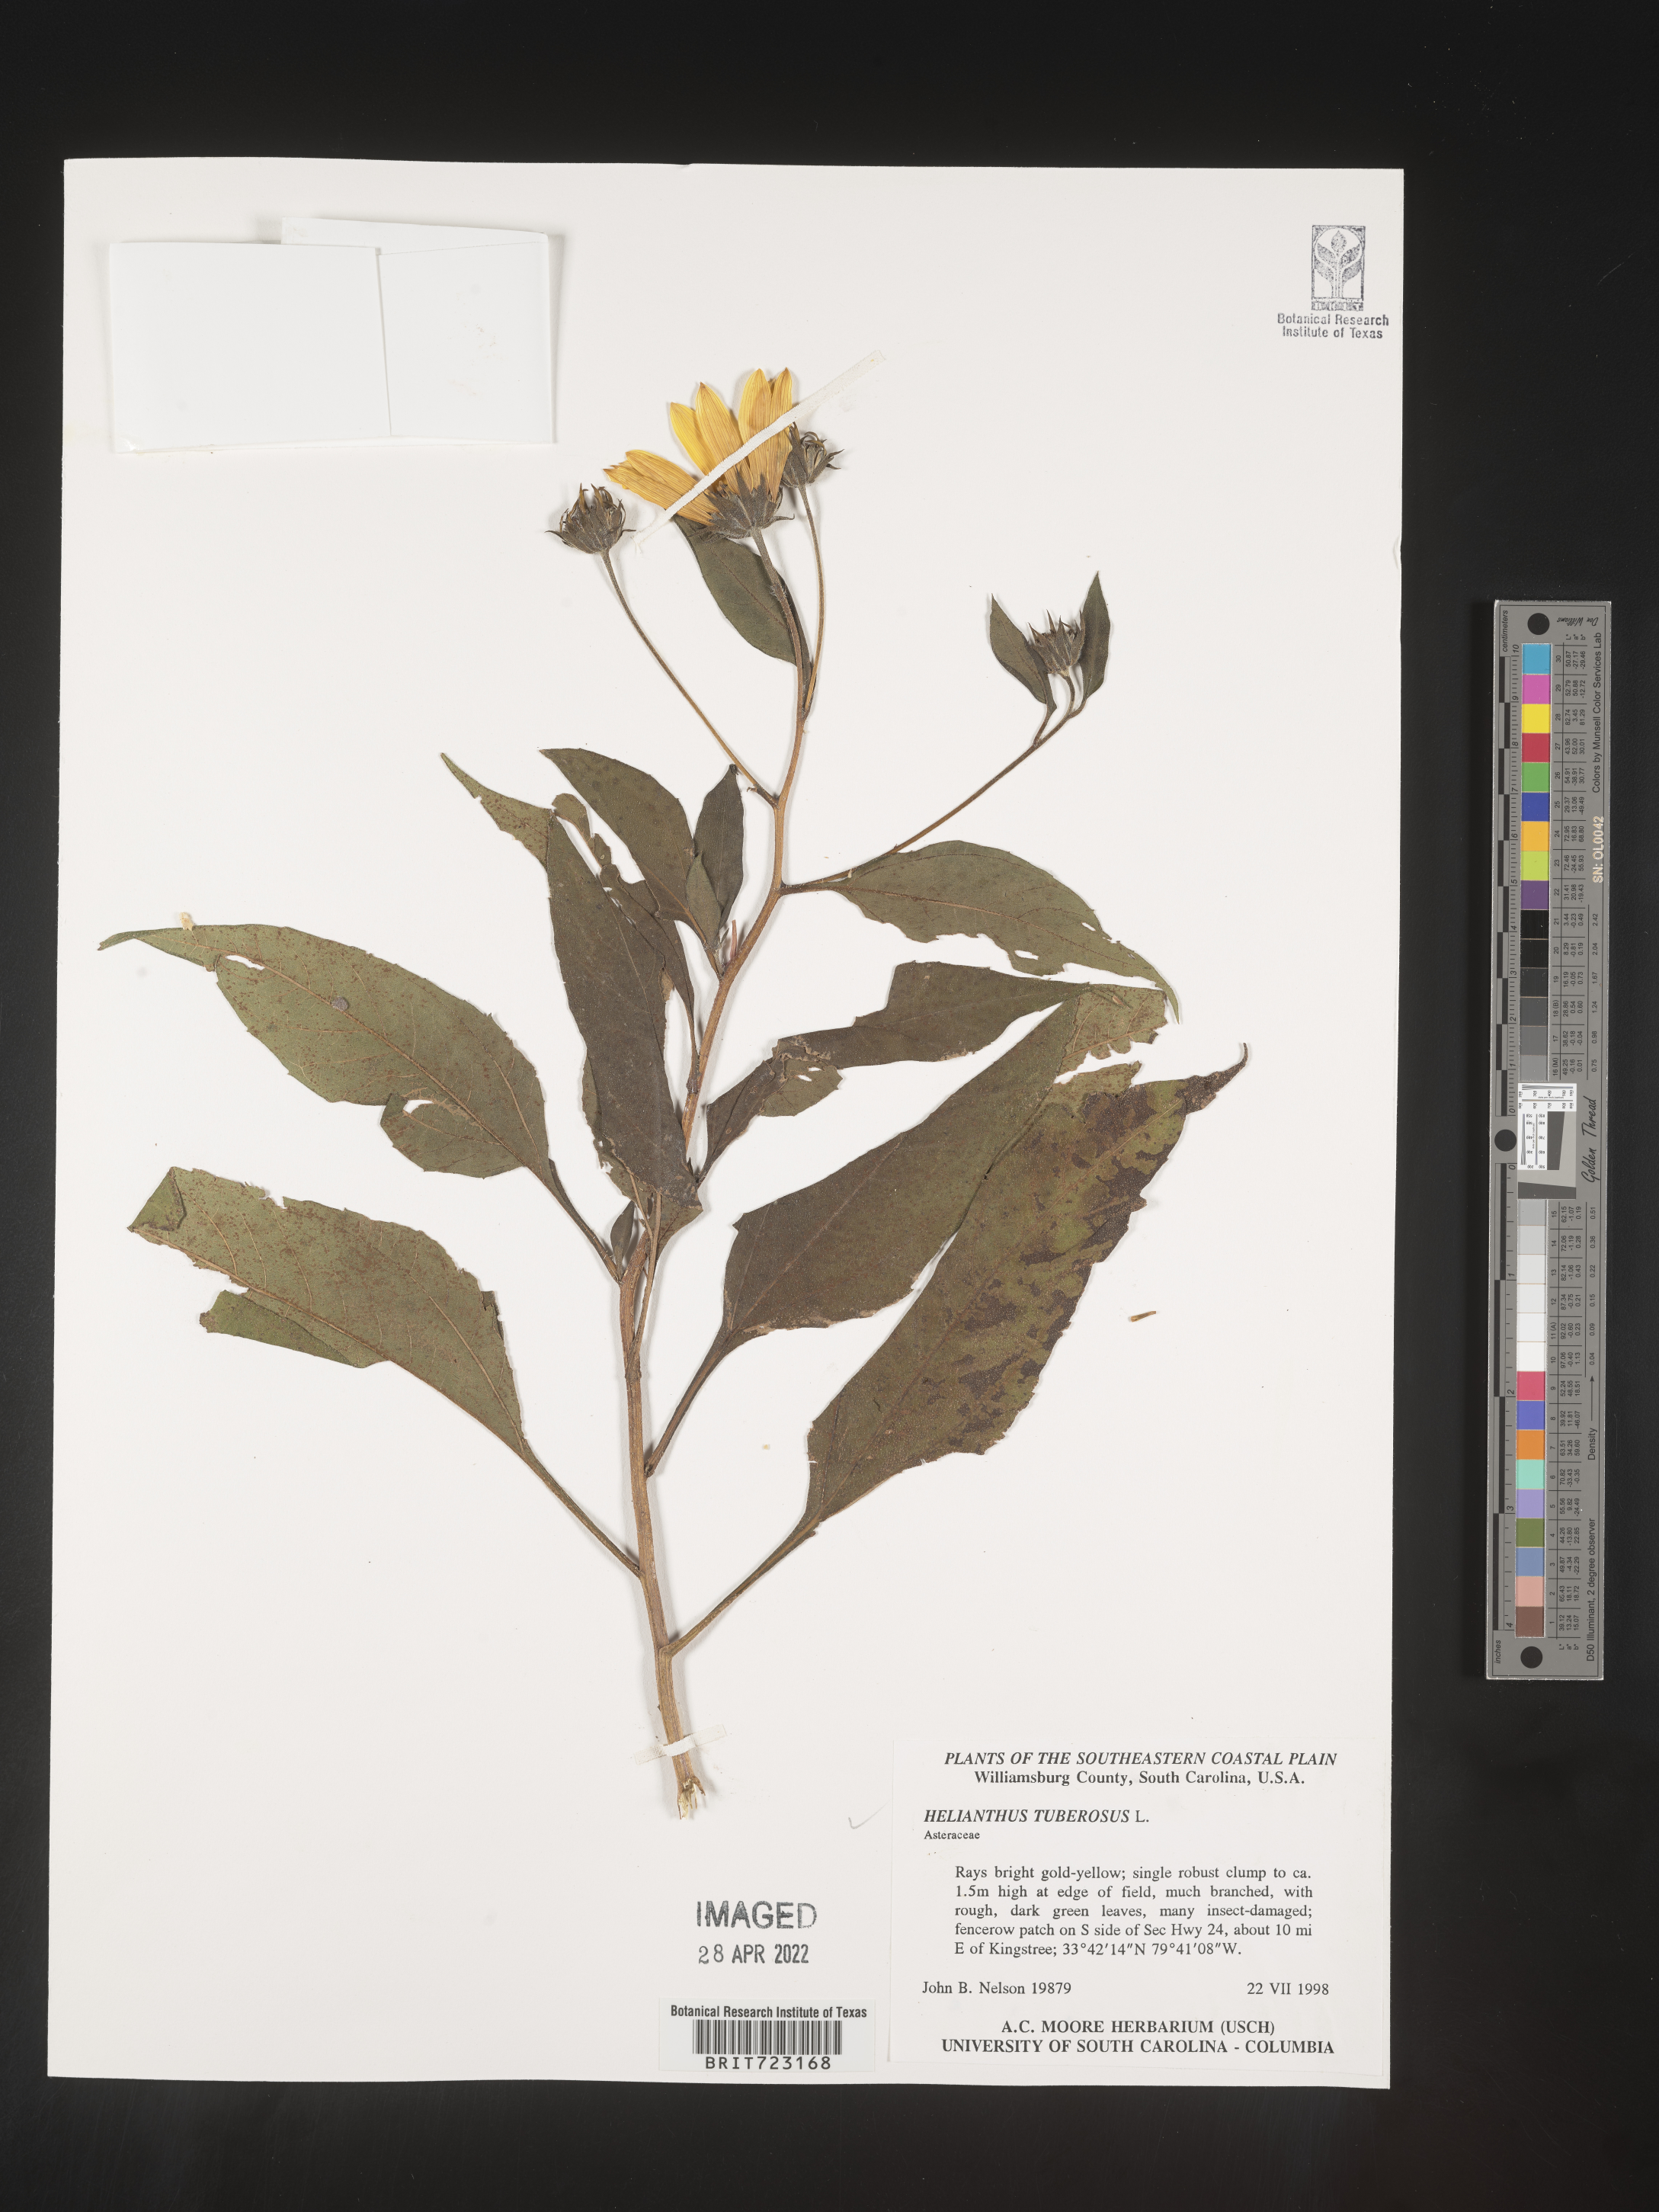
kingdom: Plantae
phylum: Tracheophyta
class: Magnoliopsida
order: Asterales
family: Asteraceae
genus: Helianthus
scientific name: Helianthus tuberosus
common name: Jerusalem artichoke
